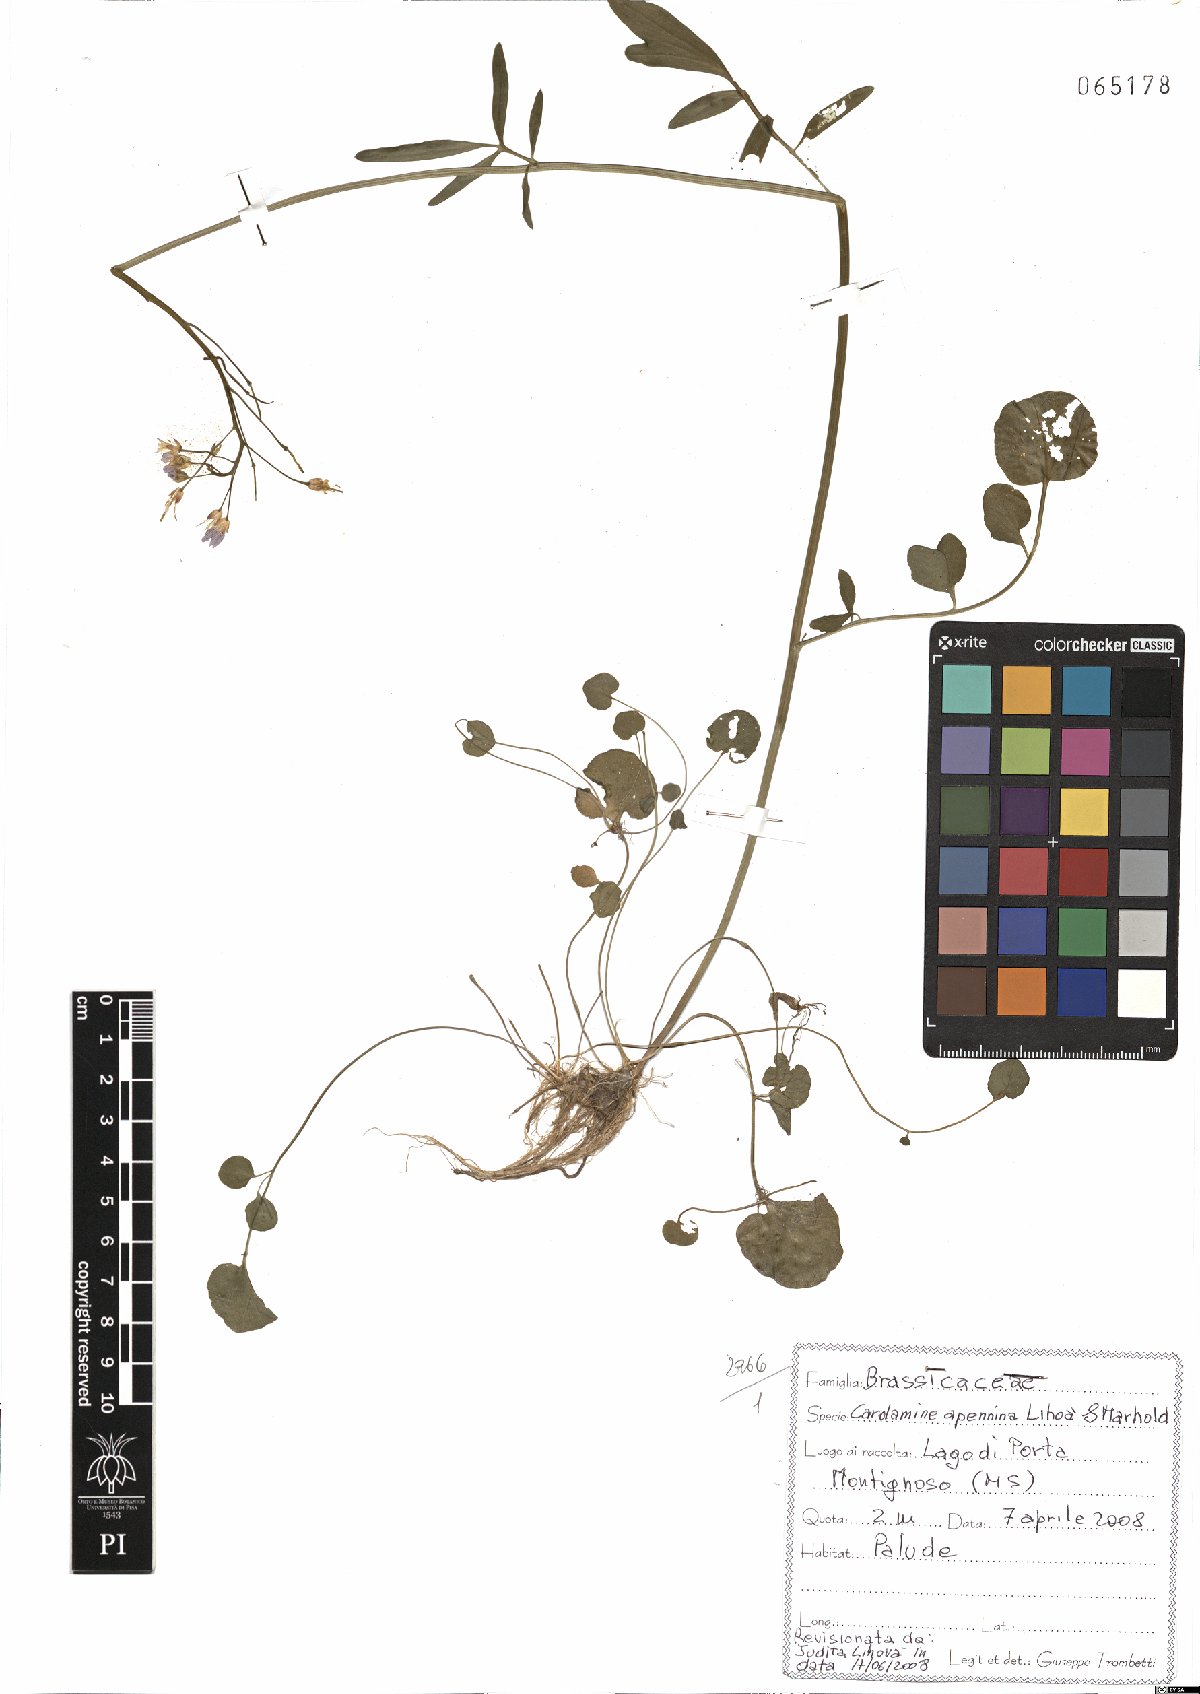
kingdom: Plantae
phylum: Tracheophyta
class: Magnoliopsida
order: Brassicales
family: Brassicaceae
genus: Cardamine
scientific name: Cardamine apennina
